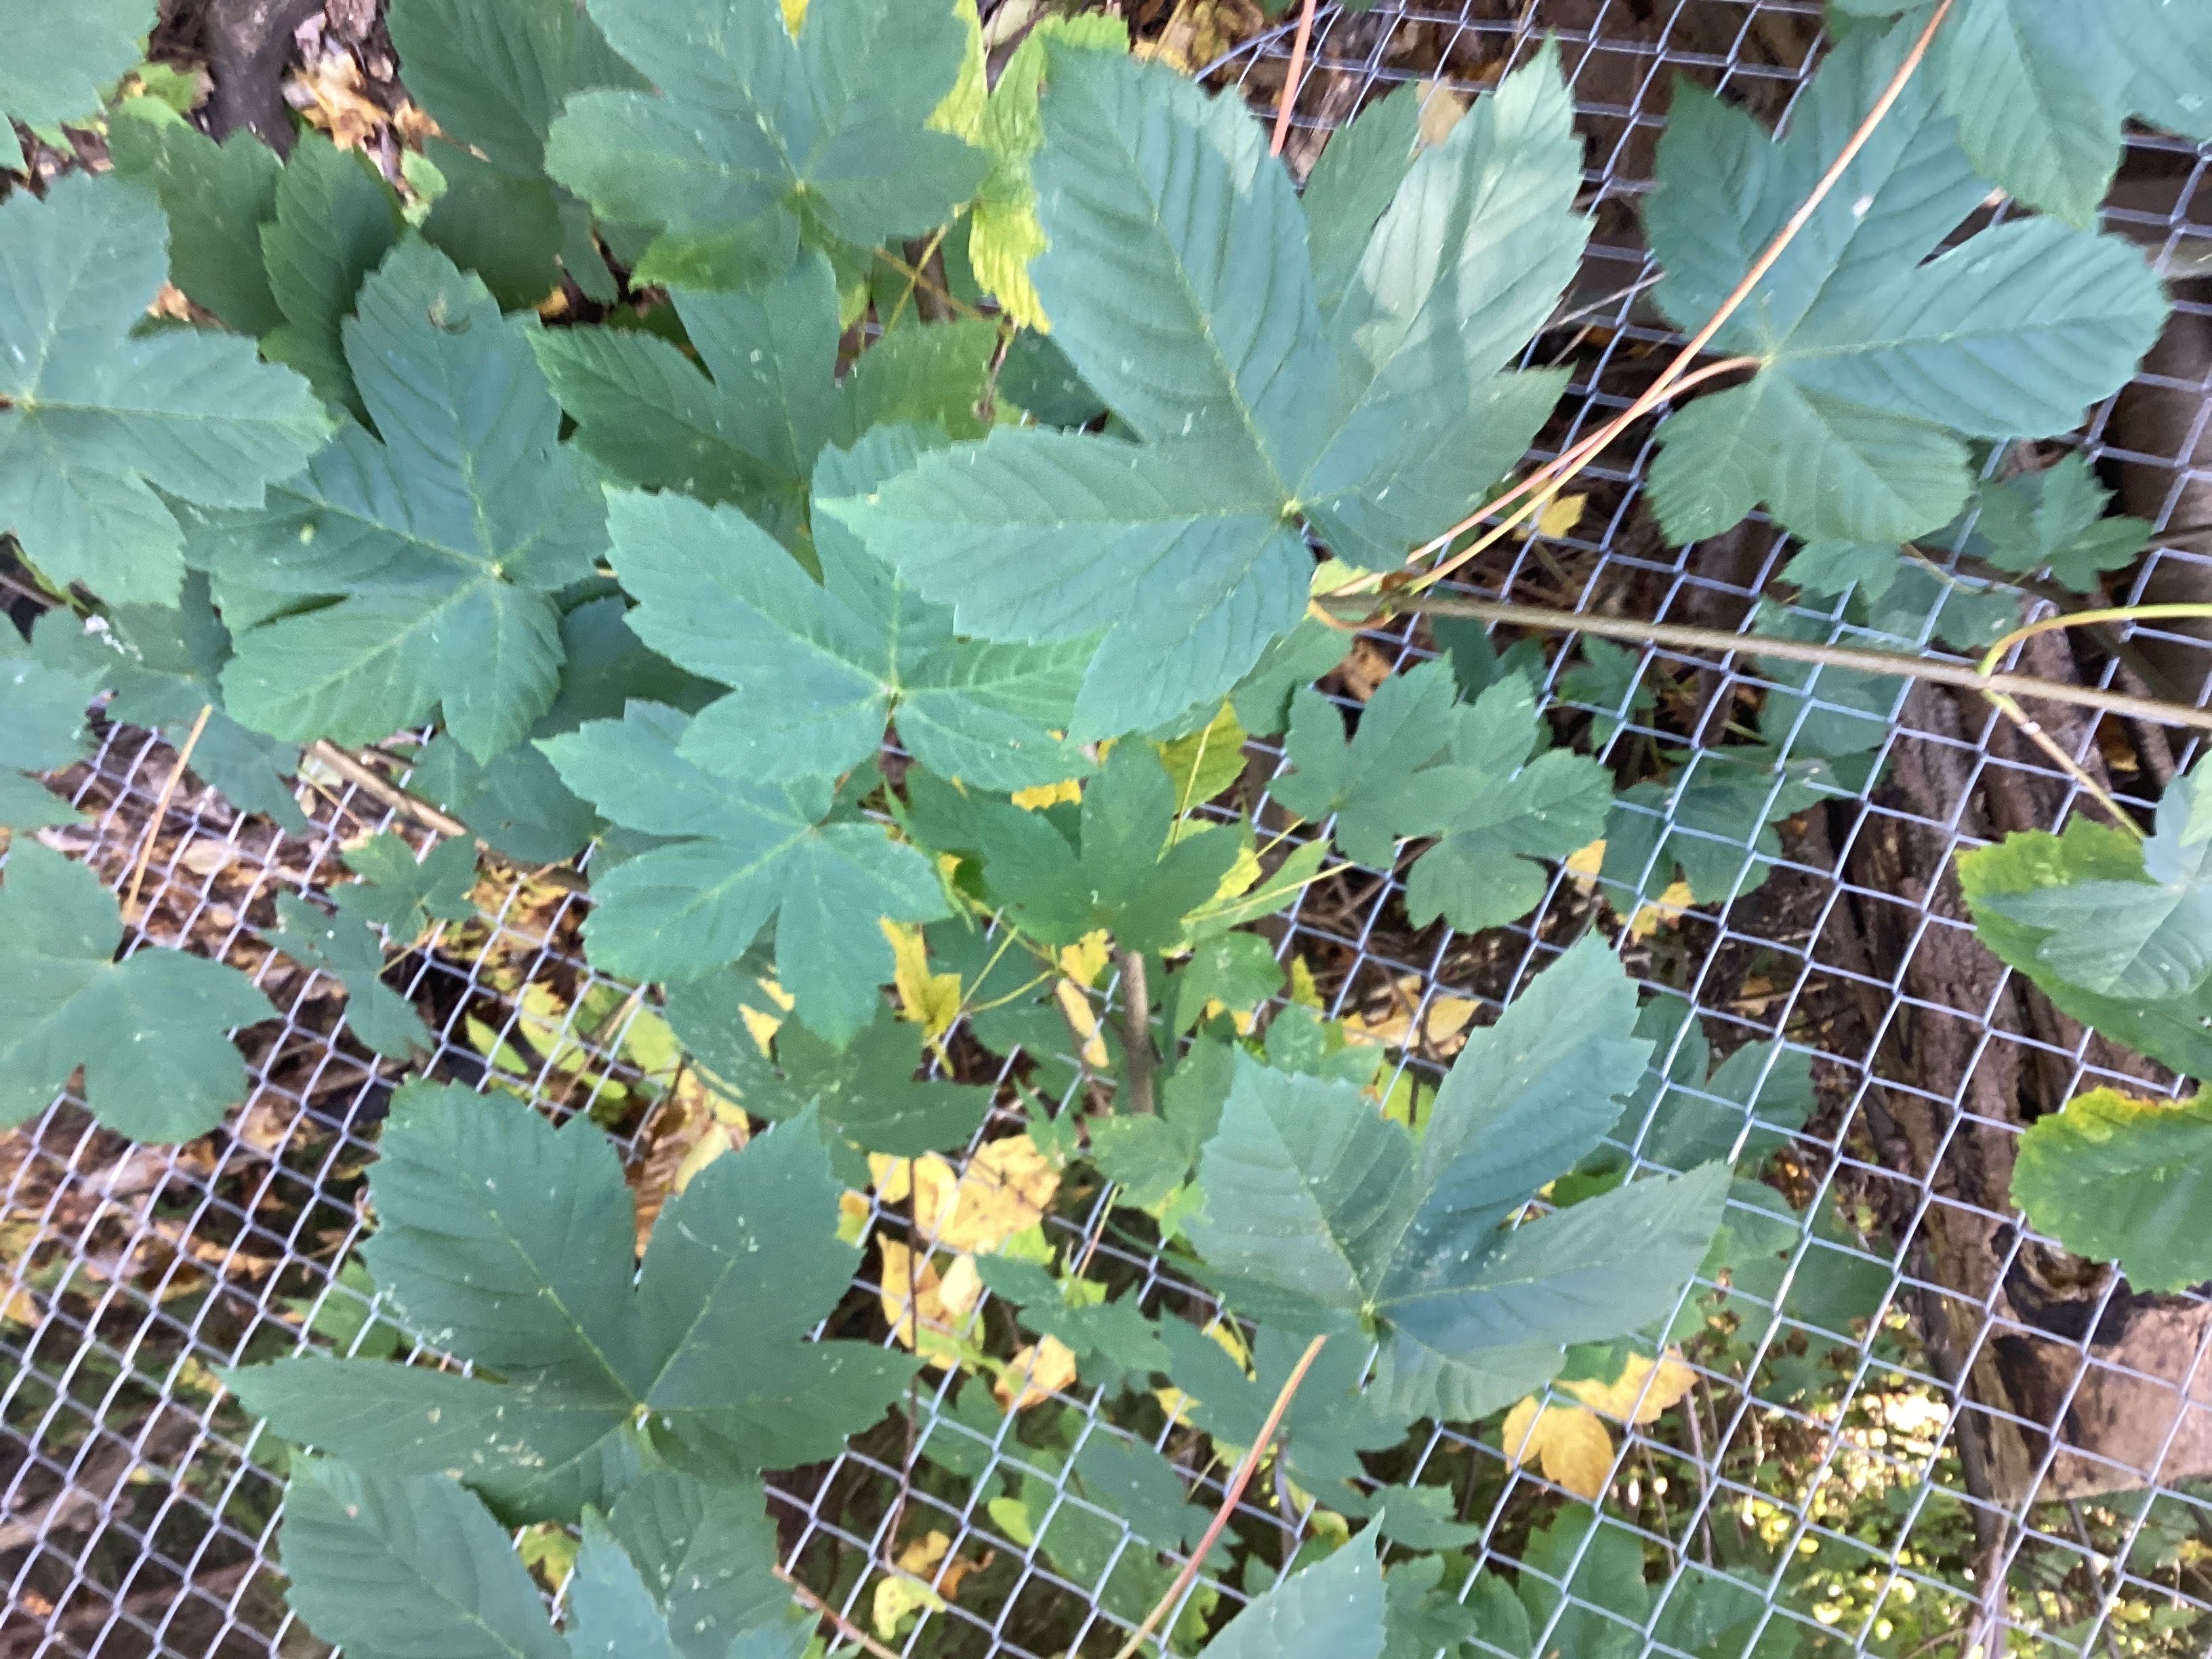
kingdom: Plantae
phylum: Tracheophyta
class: Magnoliopsida
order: Sapindales
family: Sapindaceae
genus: Acer
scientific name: Acer pseudoplatanus
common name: platanlønn
